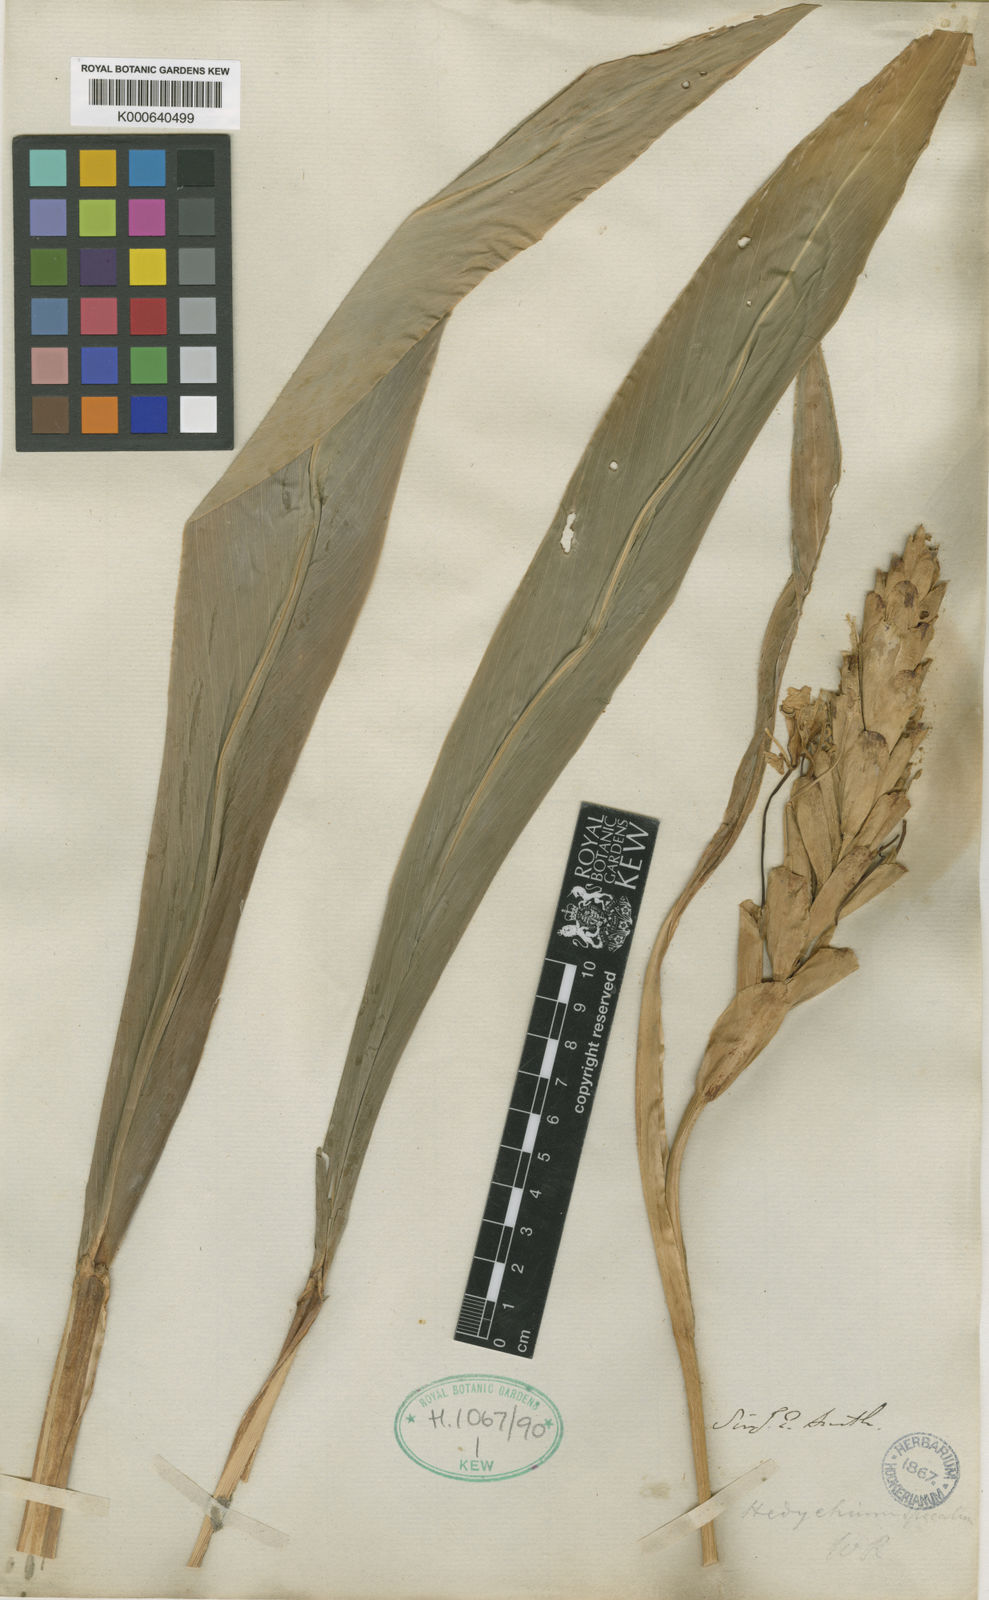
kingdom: Plantae
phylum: Tracheophyta
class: Liliopsida
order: Zingiberales
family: Zingiberaceae
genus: Hedychium
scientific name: Hedychium spicatum
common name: Spiked ginger-lily
